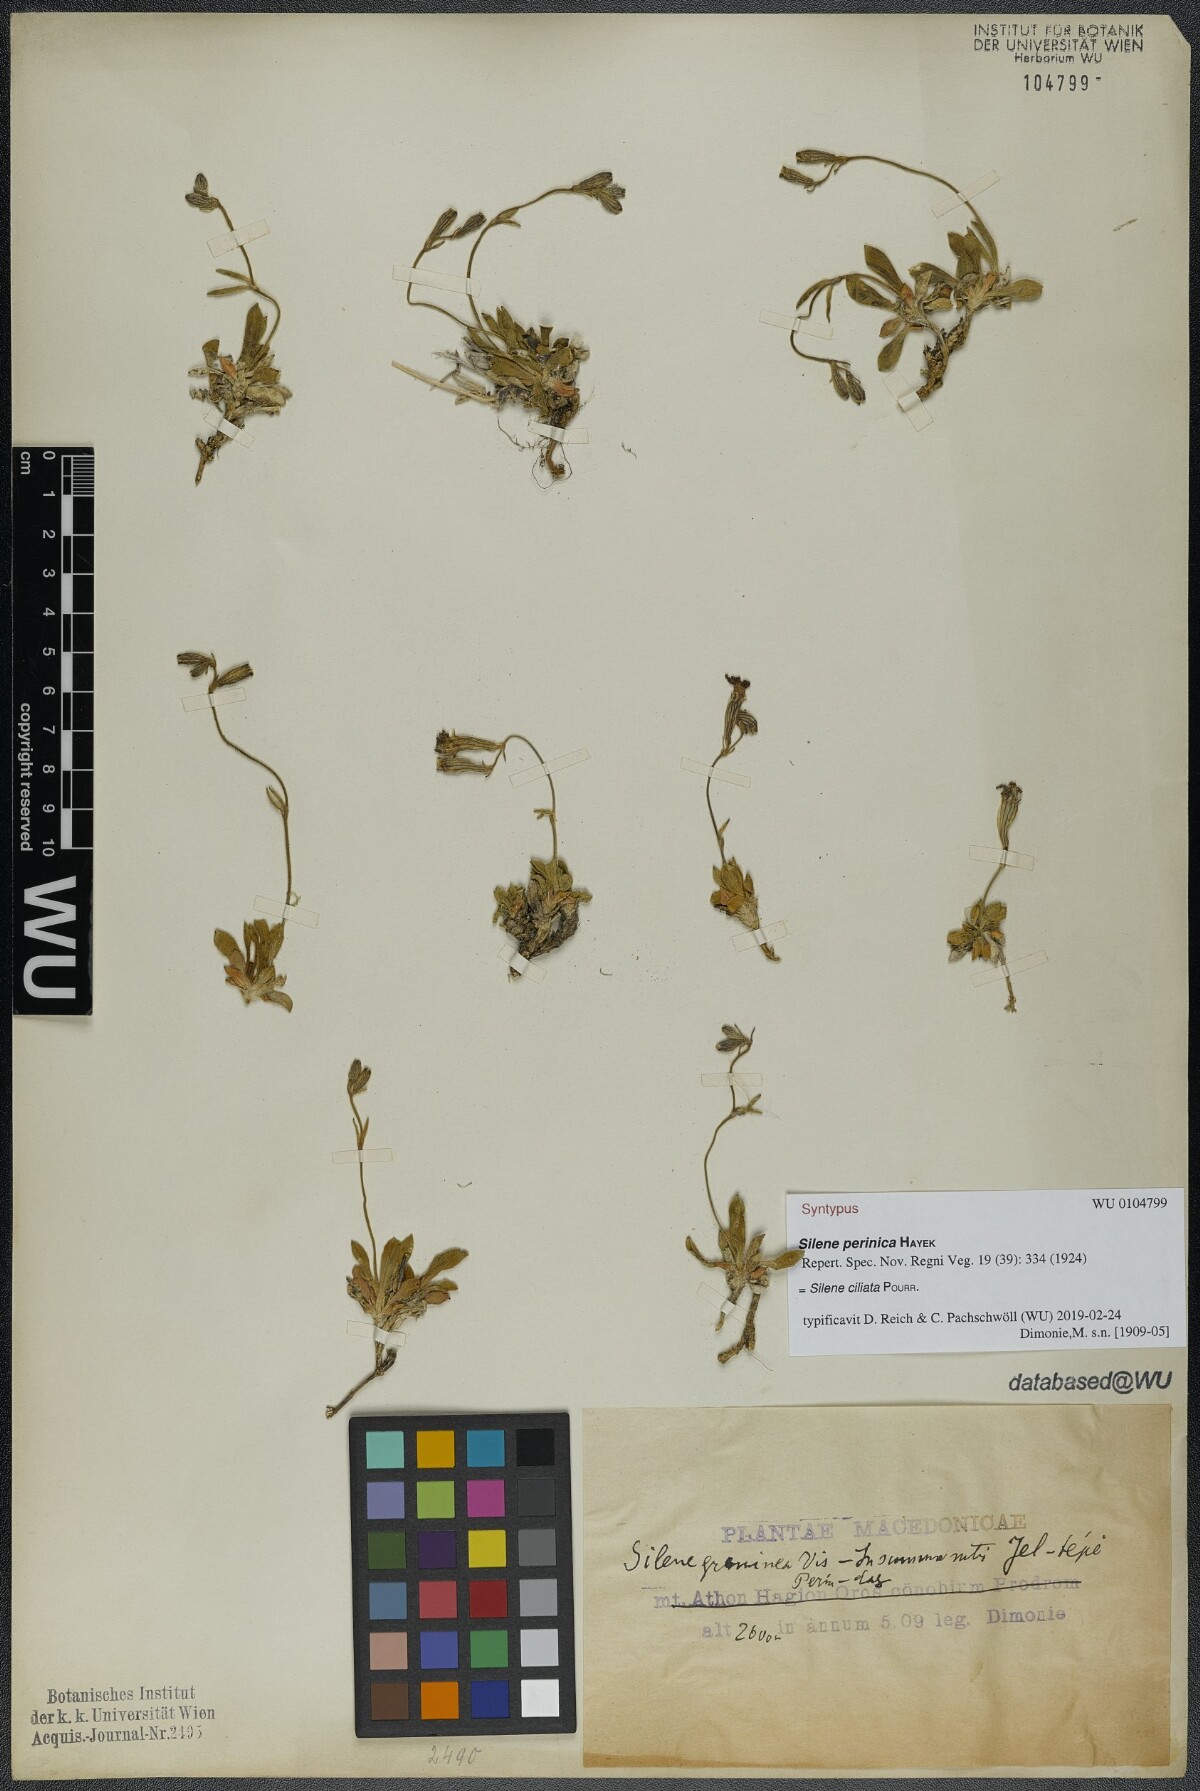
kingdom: Plantae
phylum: Tracheophyta
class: Magnoliopsida
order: Caryophyllales
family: Caryophyllaceae
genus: Silene
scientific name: Silene ciliata
